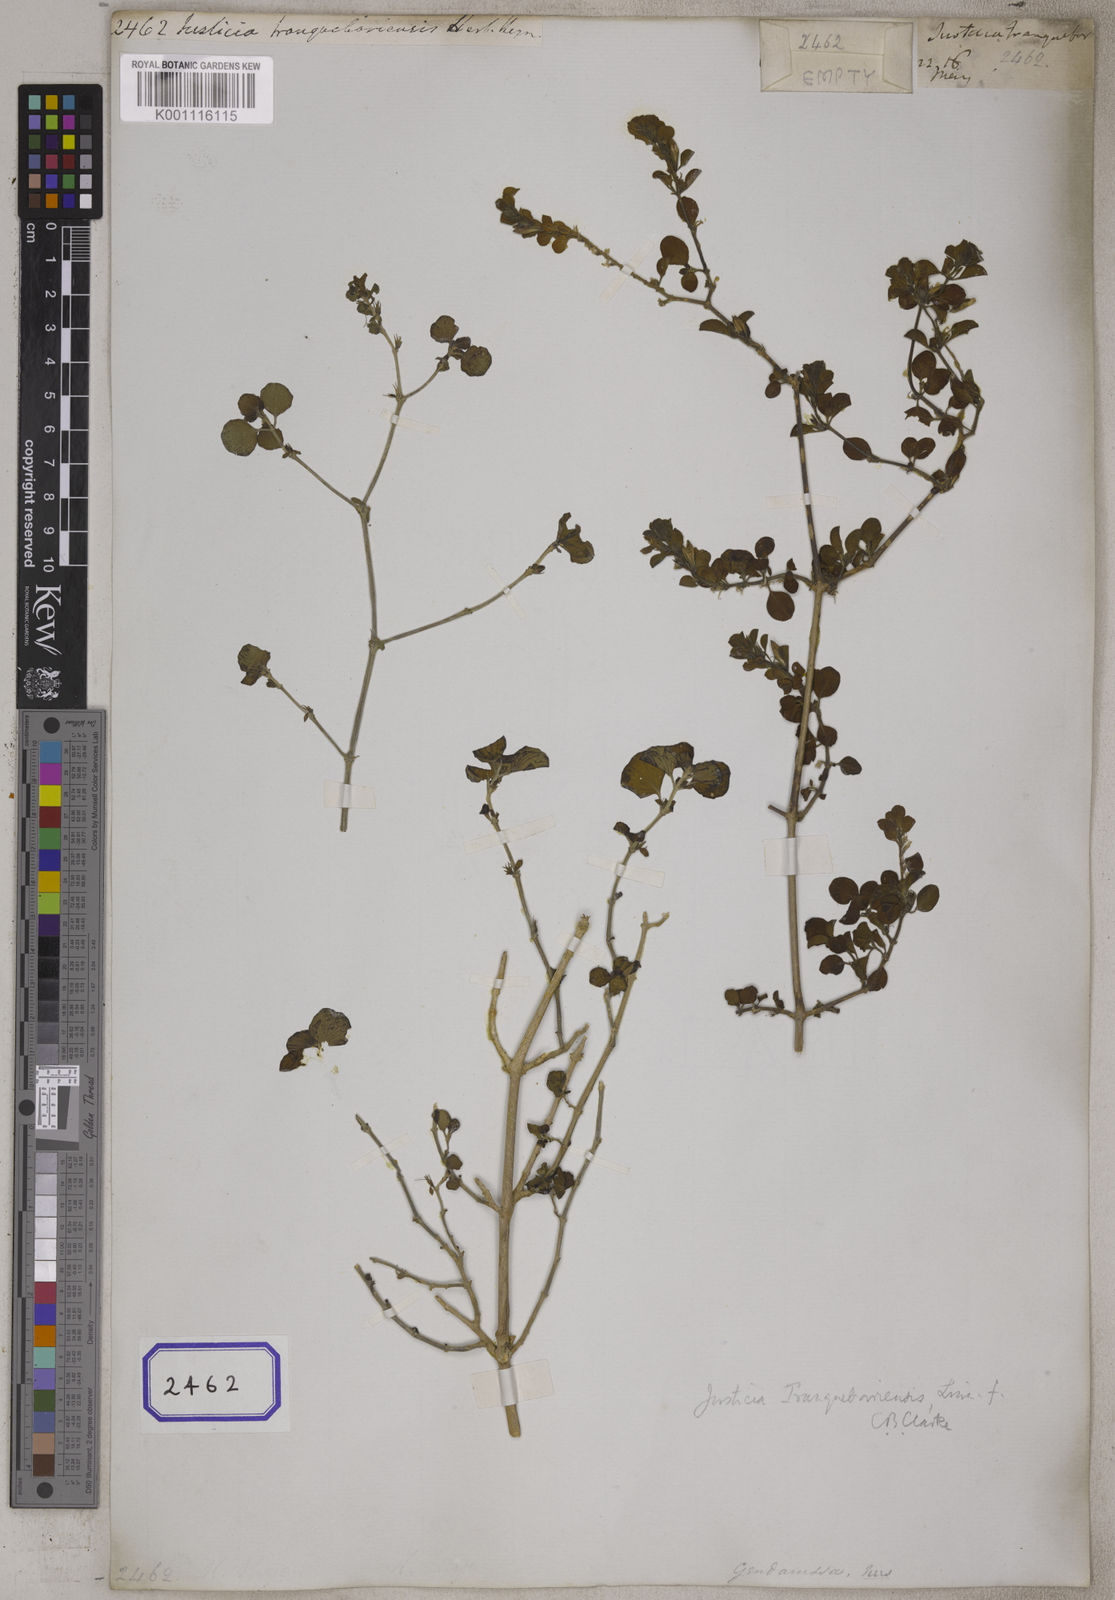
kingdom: Plantae
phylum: Tracheophyta
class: Magnoliopsida
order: Lamiales
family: Acanthaceae
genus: Justicia
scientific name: Justicia glauca
